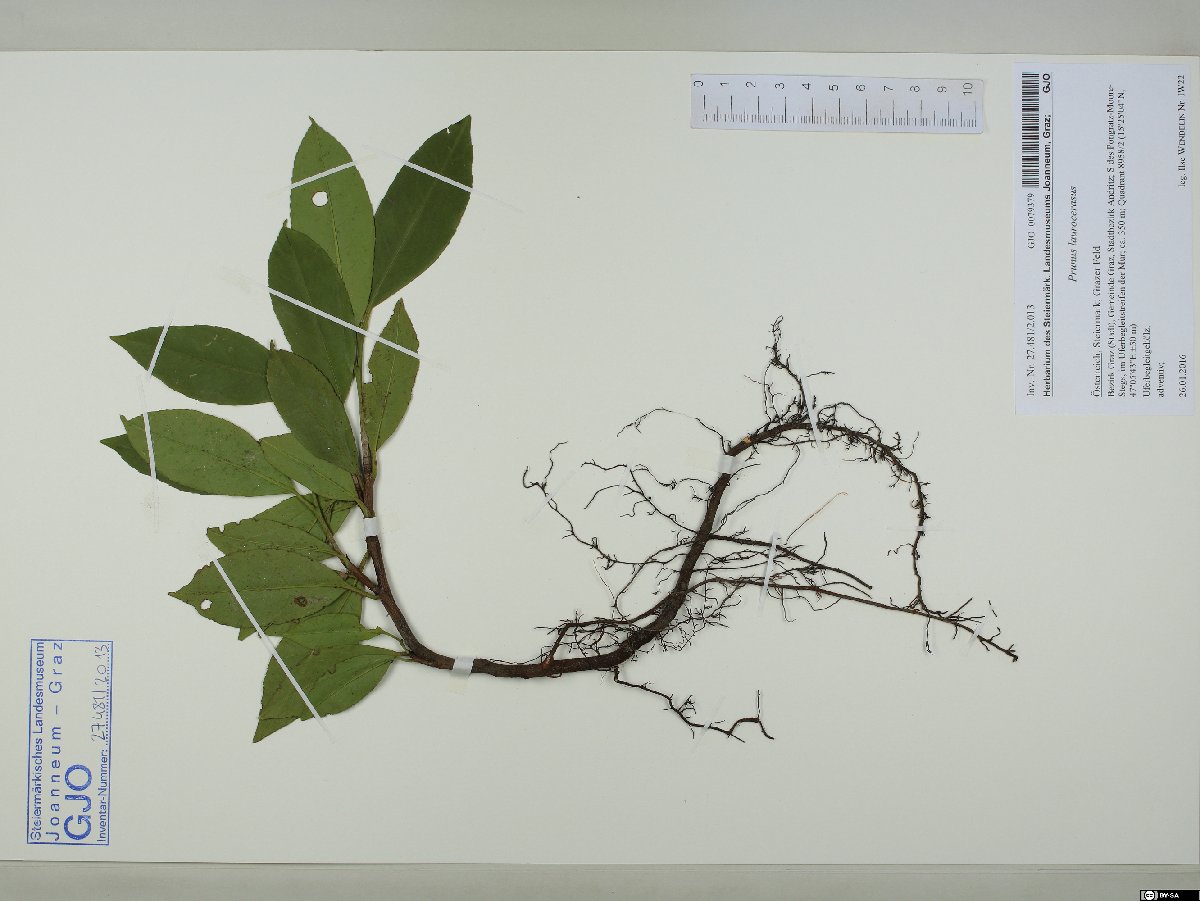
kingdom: Plantae
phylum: Tracheophyta
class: Magnoliopsida
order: Rosales
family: Rosaceae
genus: Prunus
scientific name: Prunus laurocerasus
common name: Cherry laurel
